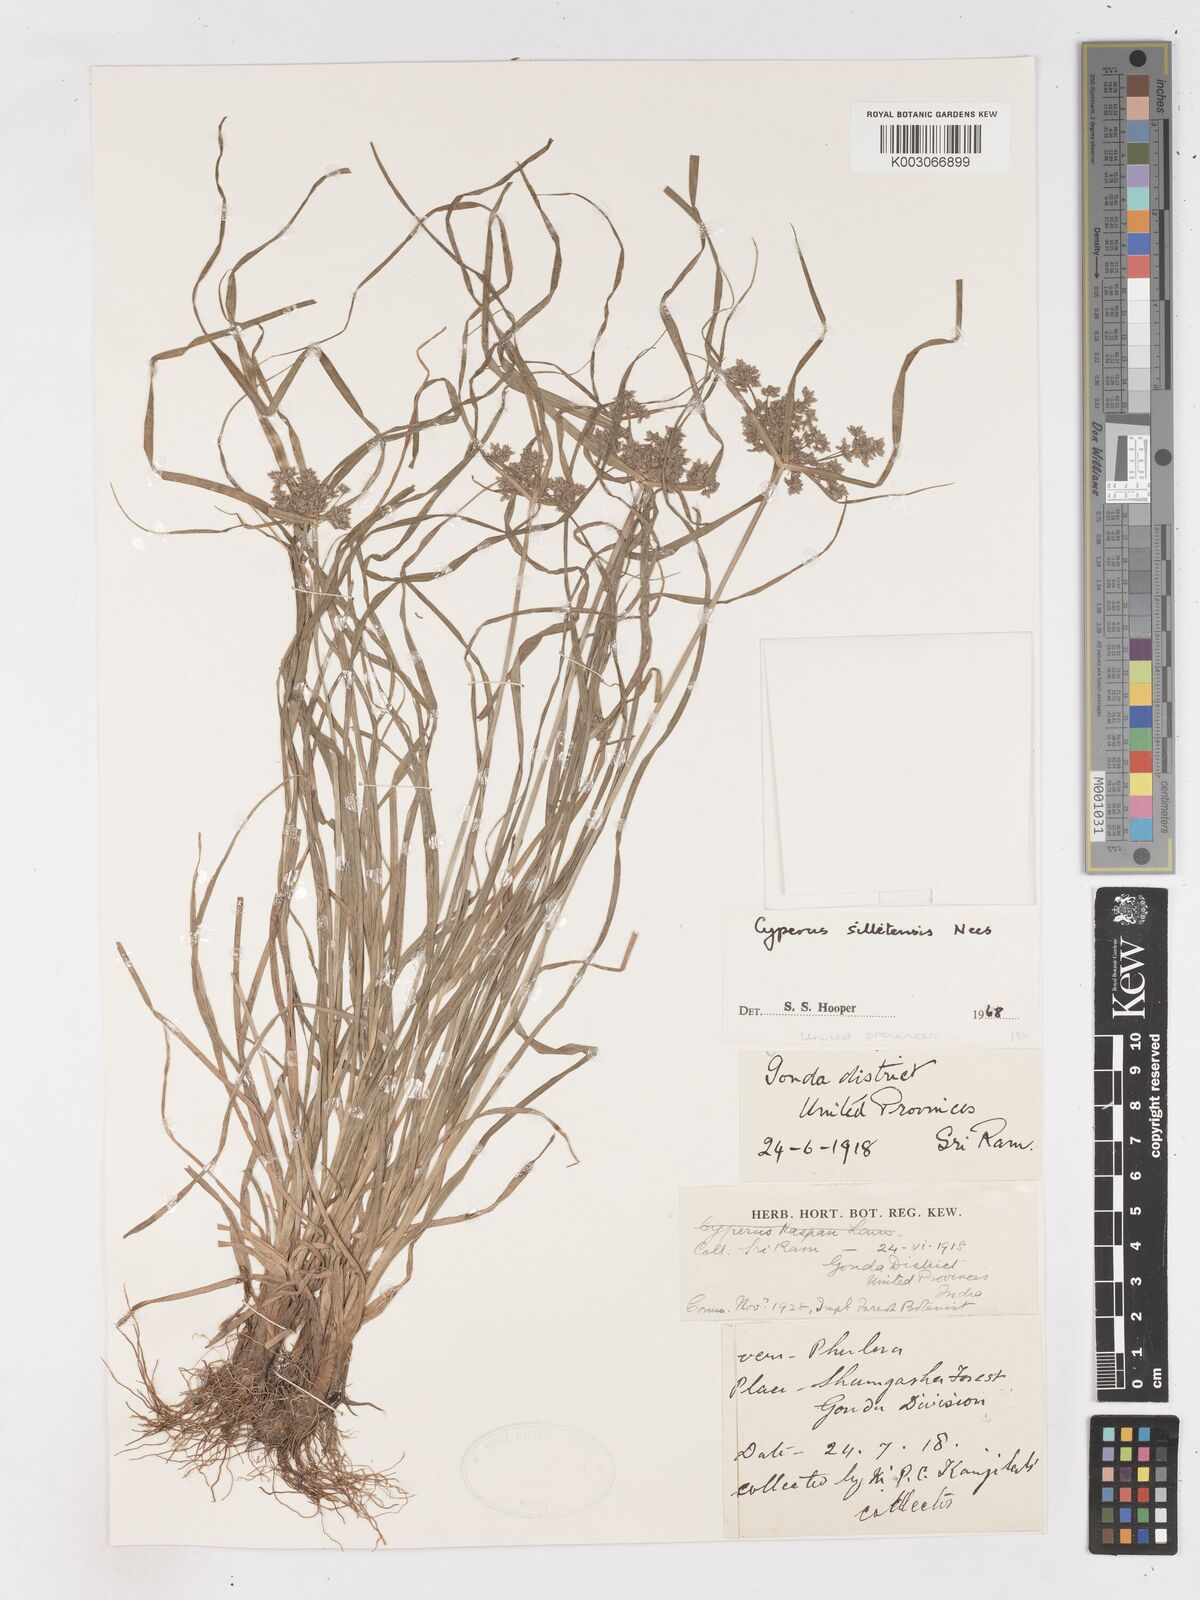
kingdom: Plantae
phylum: Tracheophyta
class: Liliopsida
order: Poales
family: Cyperaceae
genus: Cyperus
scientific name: Cyperus silletensis
